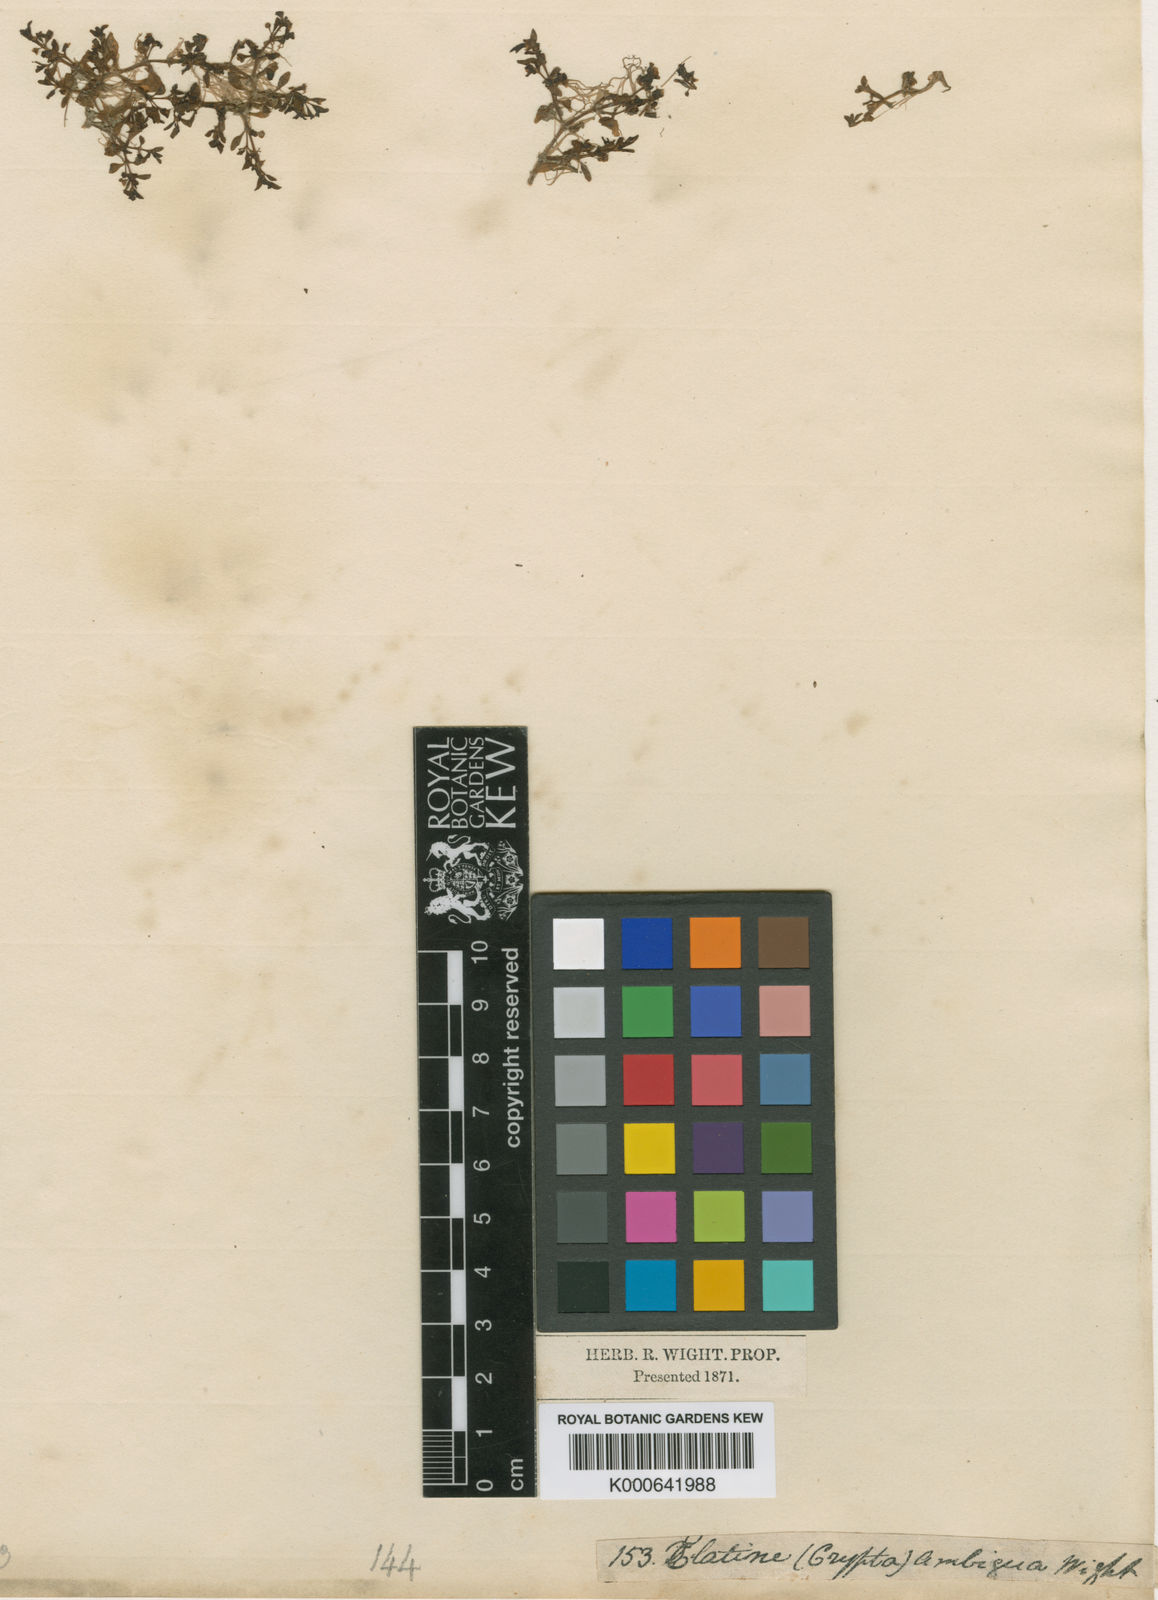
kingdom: Plantae
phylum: Tracheophyta
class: Magnoliopsida
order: Malpighiales
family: Elatinaceae
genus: Elatine
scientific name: Elatine ambigua
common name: Asian waterwort
